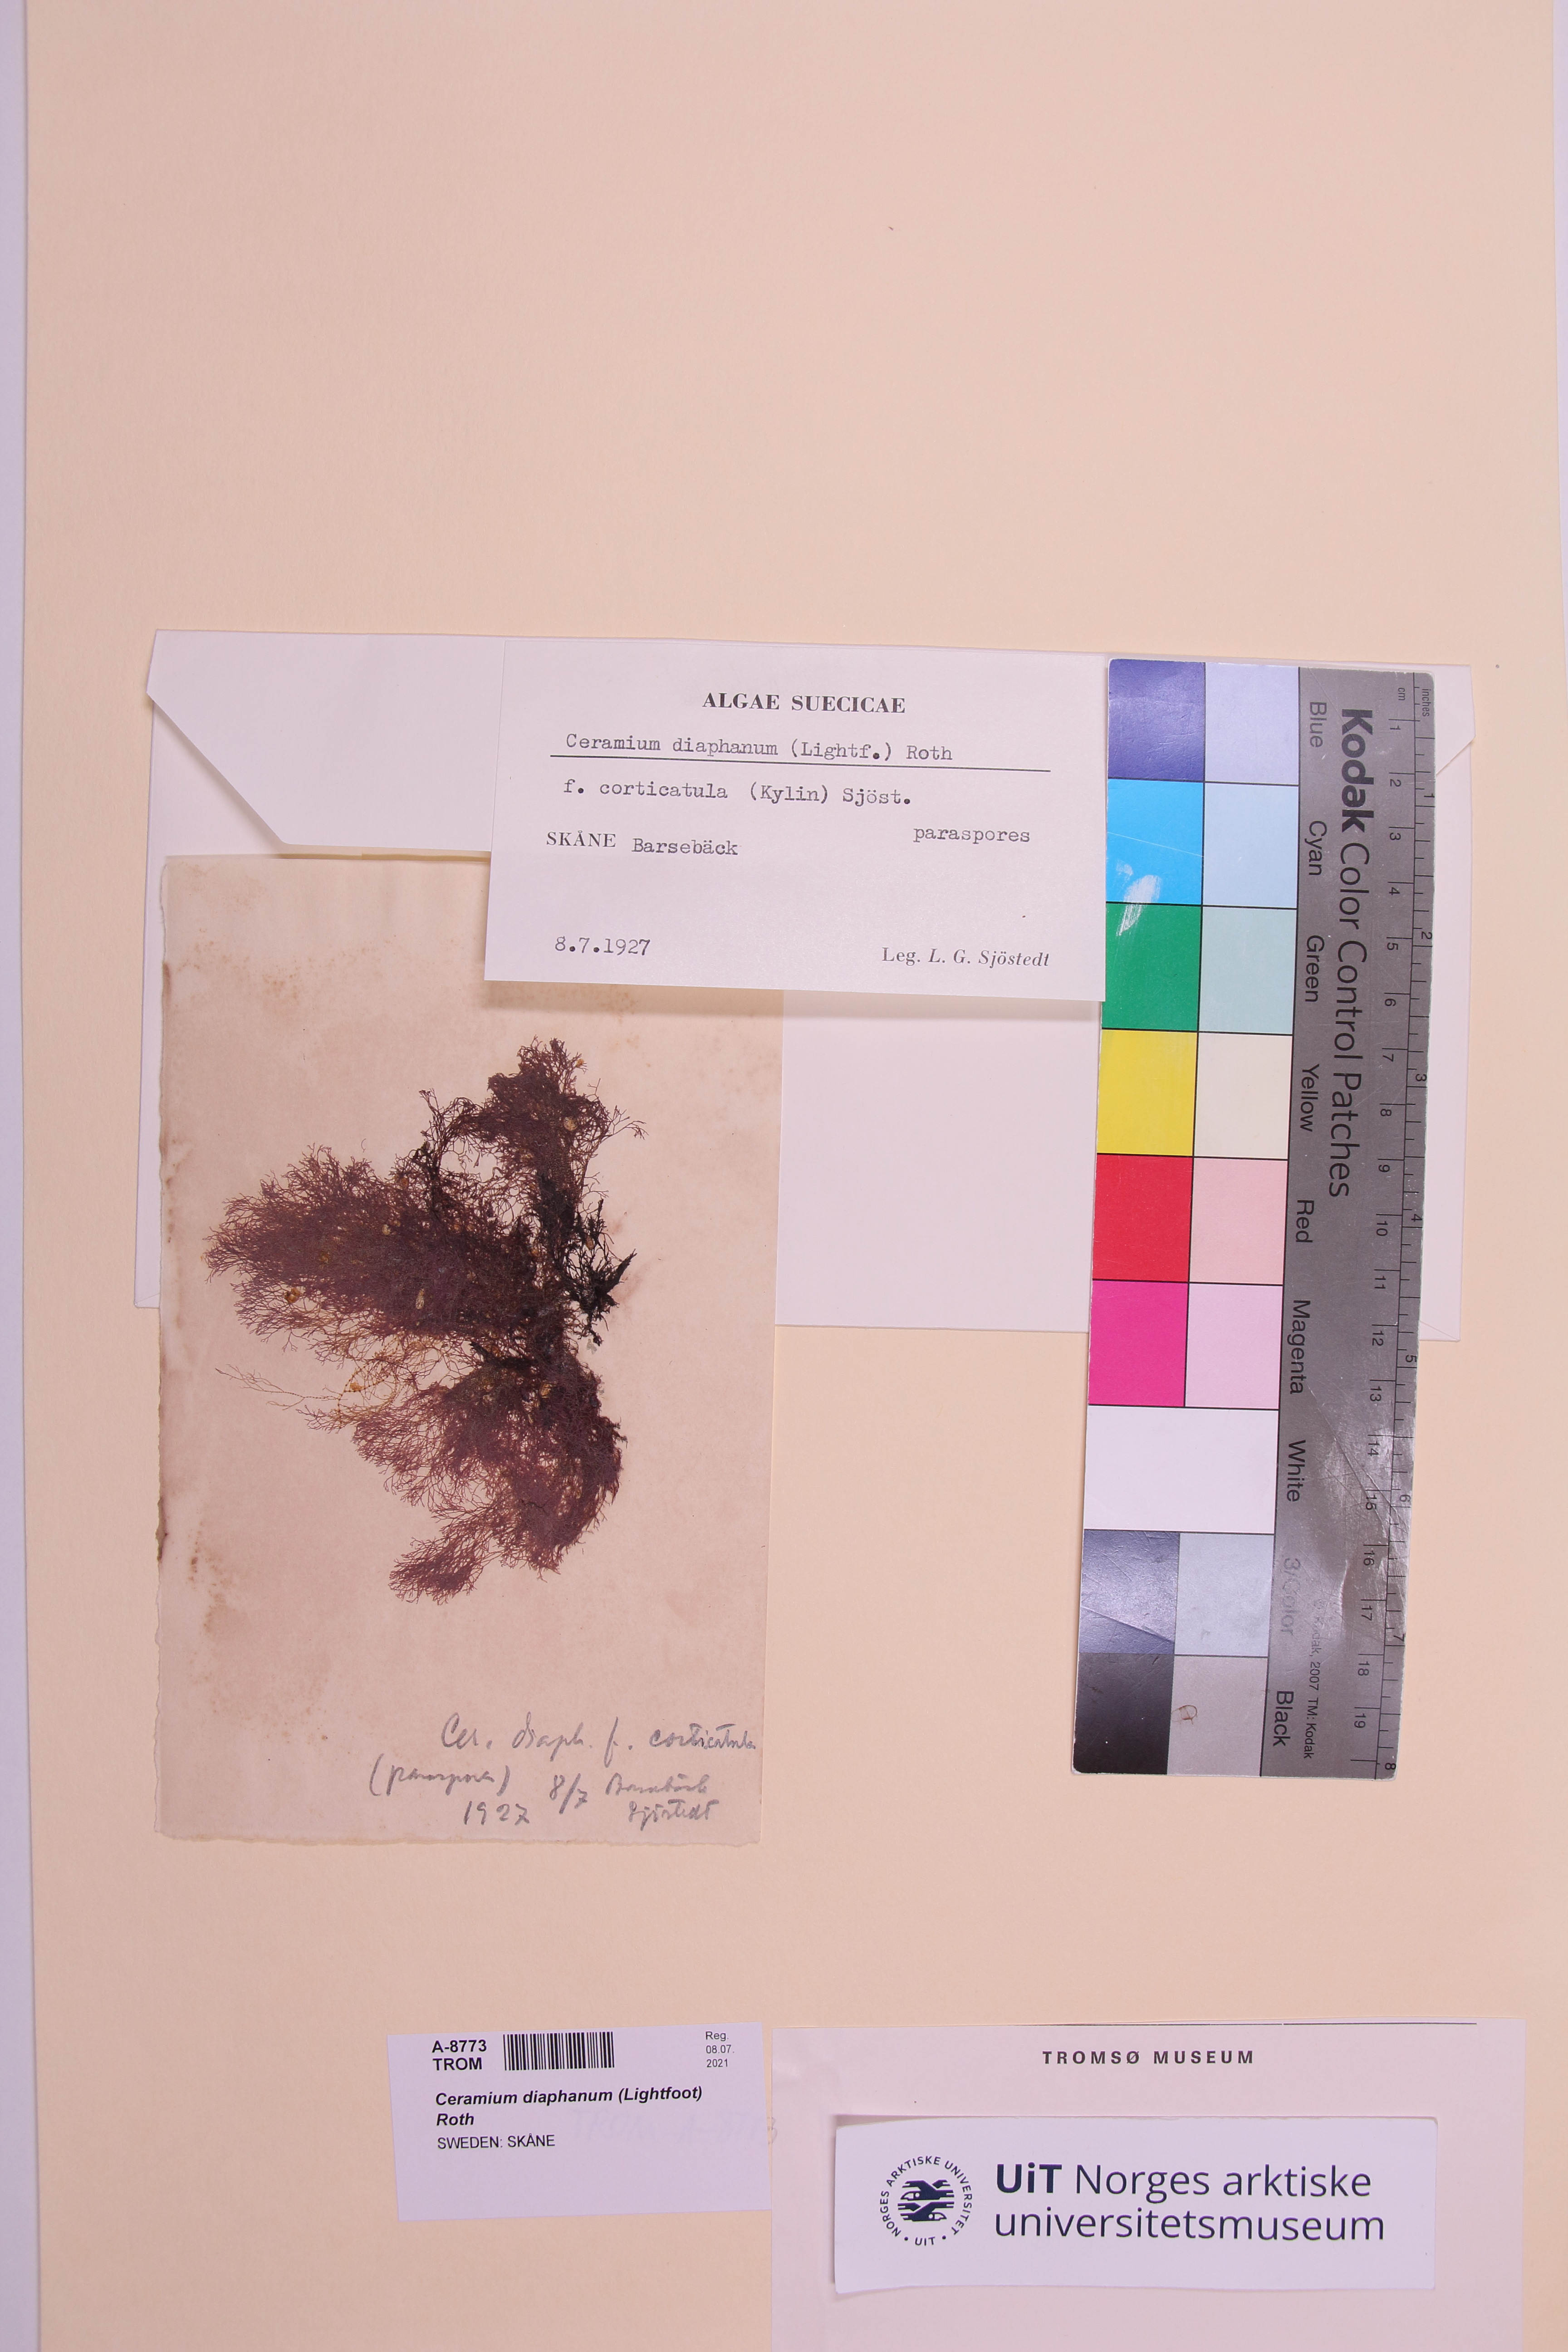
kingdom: Plantae
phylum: Rhodophyta
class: Florideophyceae
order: Ceramiales
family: Ceramiaceae
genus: Ceramium
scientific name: Ceramium diaphanum
